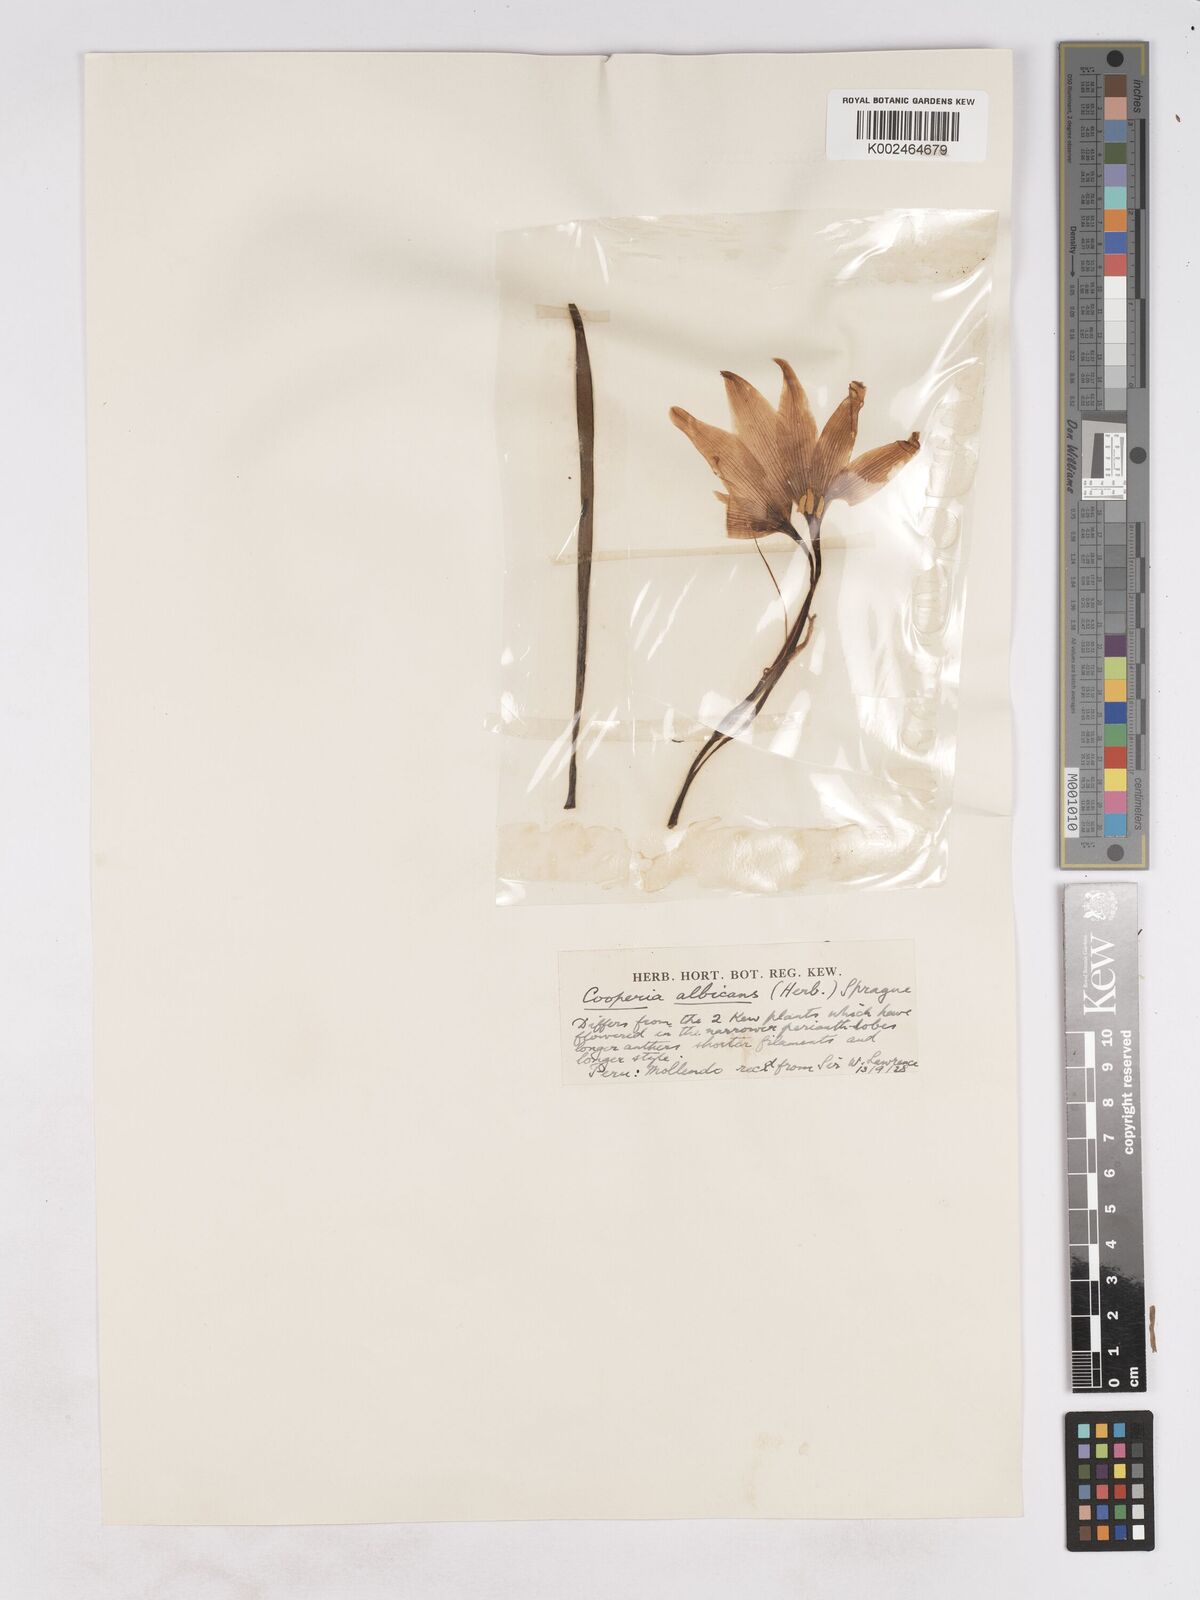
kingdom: Plantae
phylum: Tracheophyta
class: Liliopsida
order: Asparagales
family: Amaryllidaceae
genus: Pyrolirion
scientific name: Pyrolirion albicans
